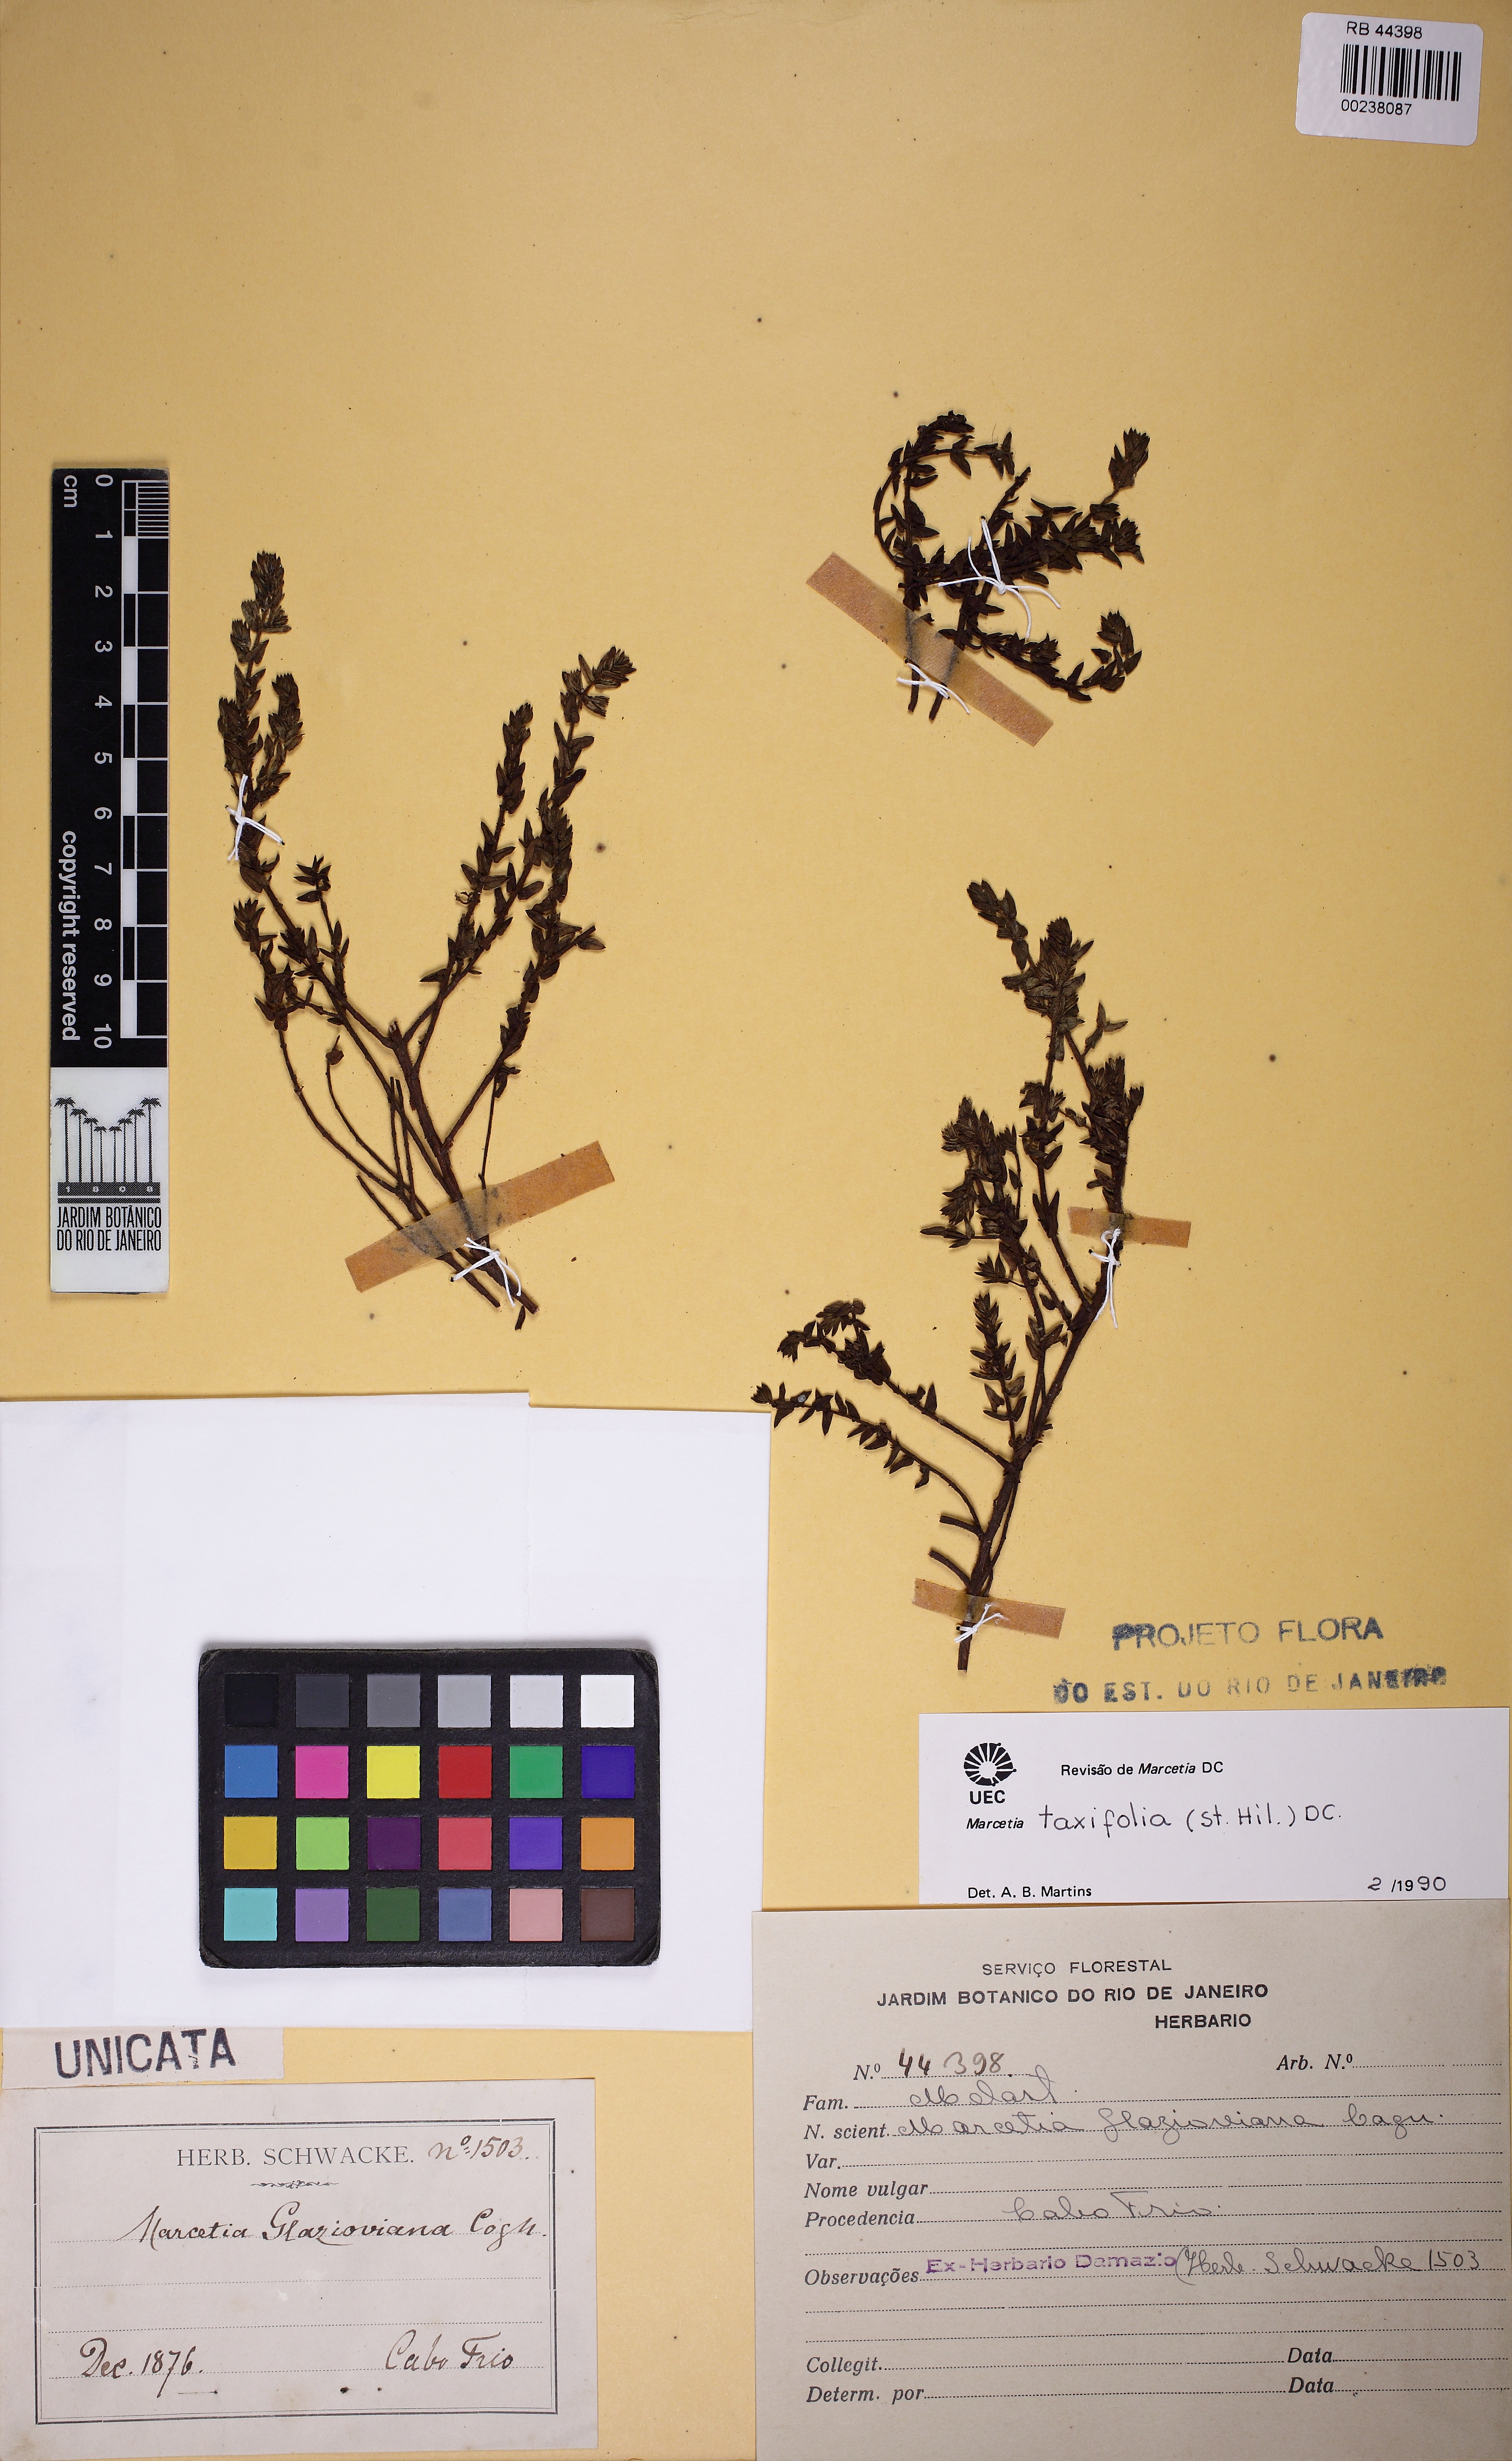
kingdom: Plantae
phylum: Tracheophyta
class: Magnoliopsida
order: Myrtales
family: Melastomataceae
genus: Marcetia
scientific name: Marcetia taxifolia
